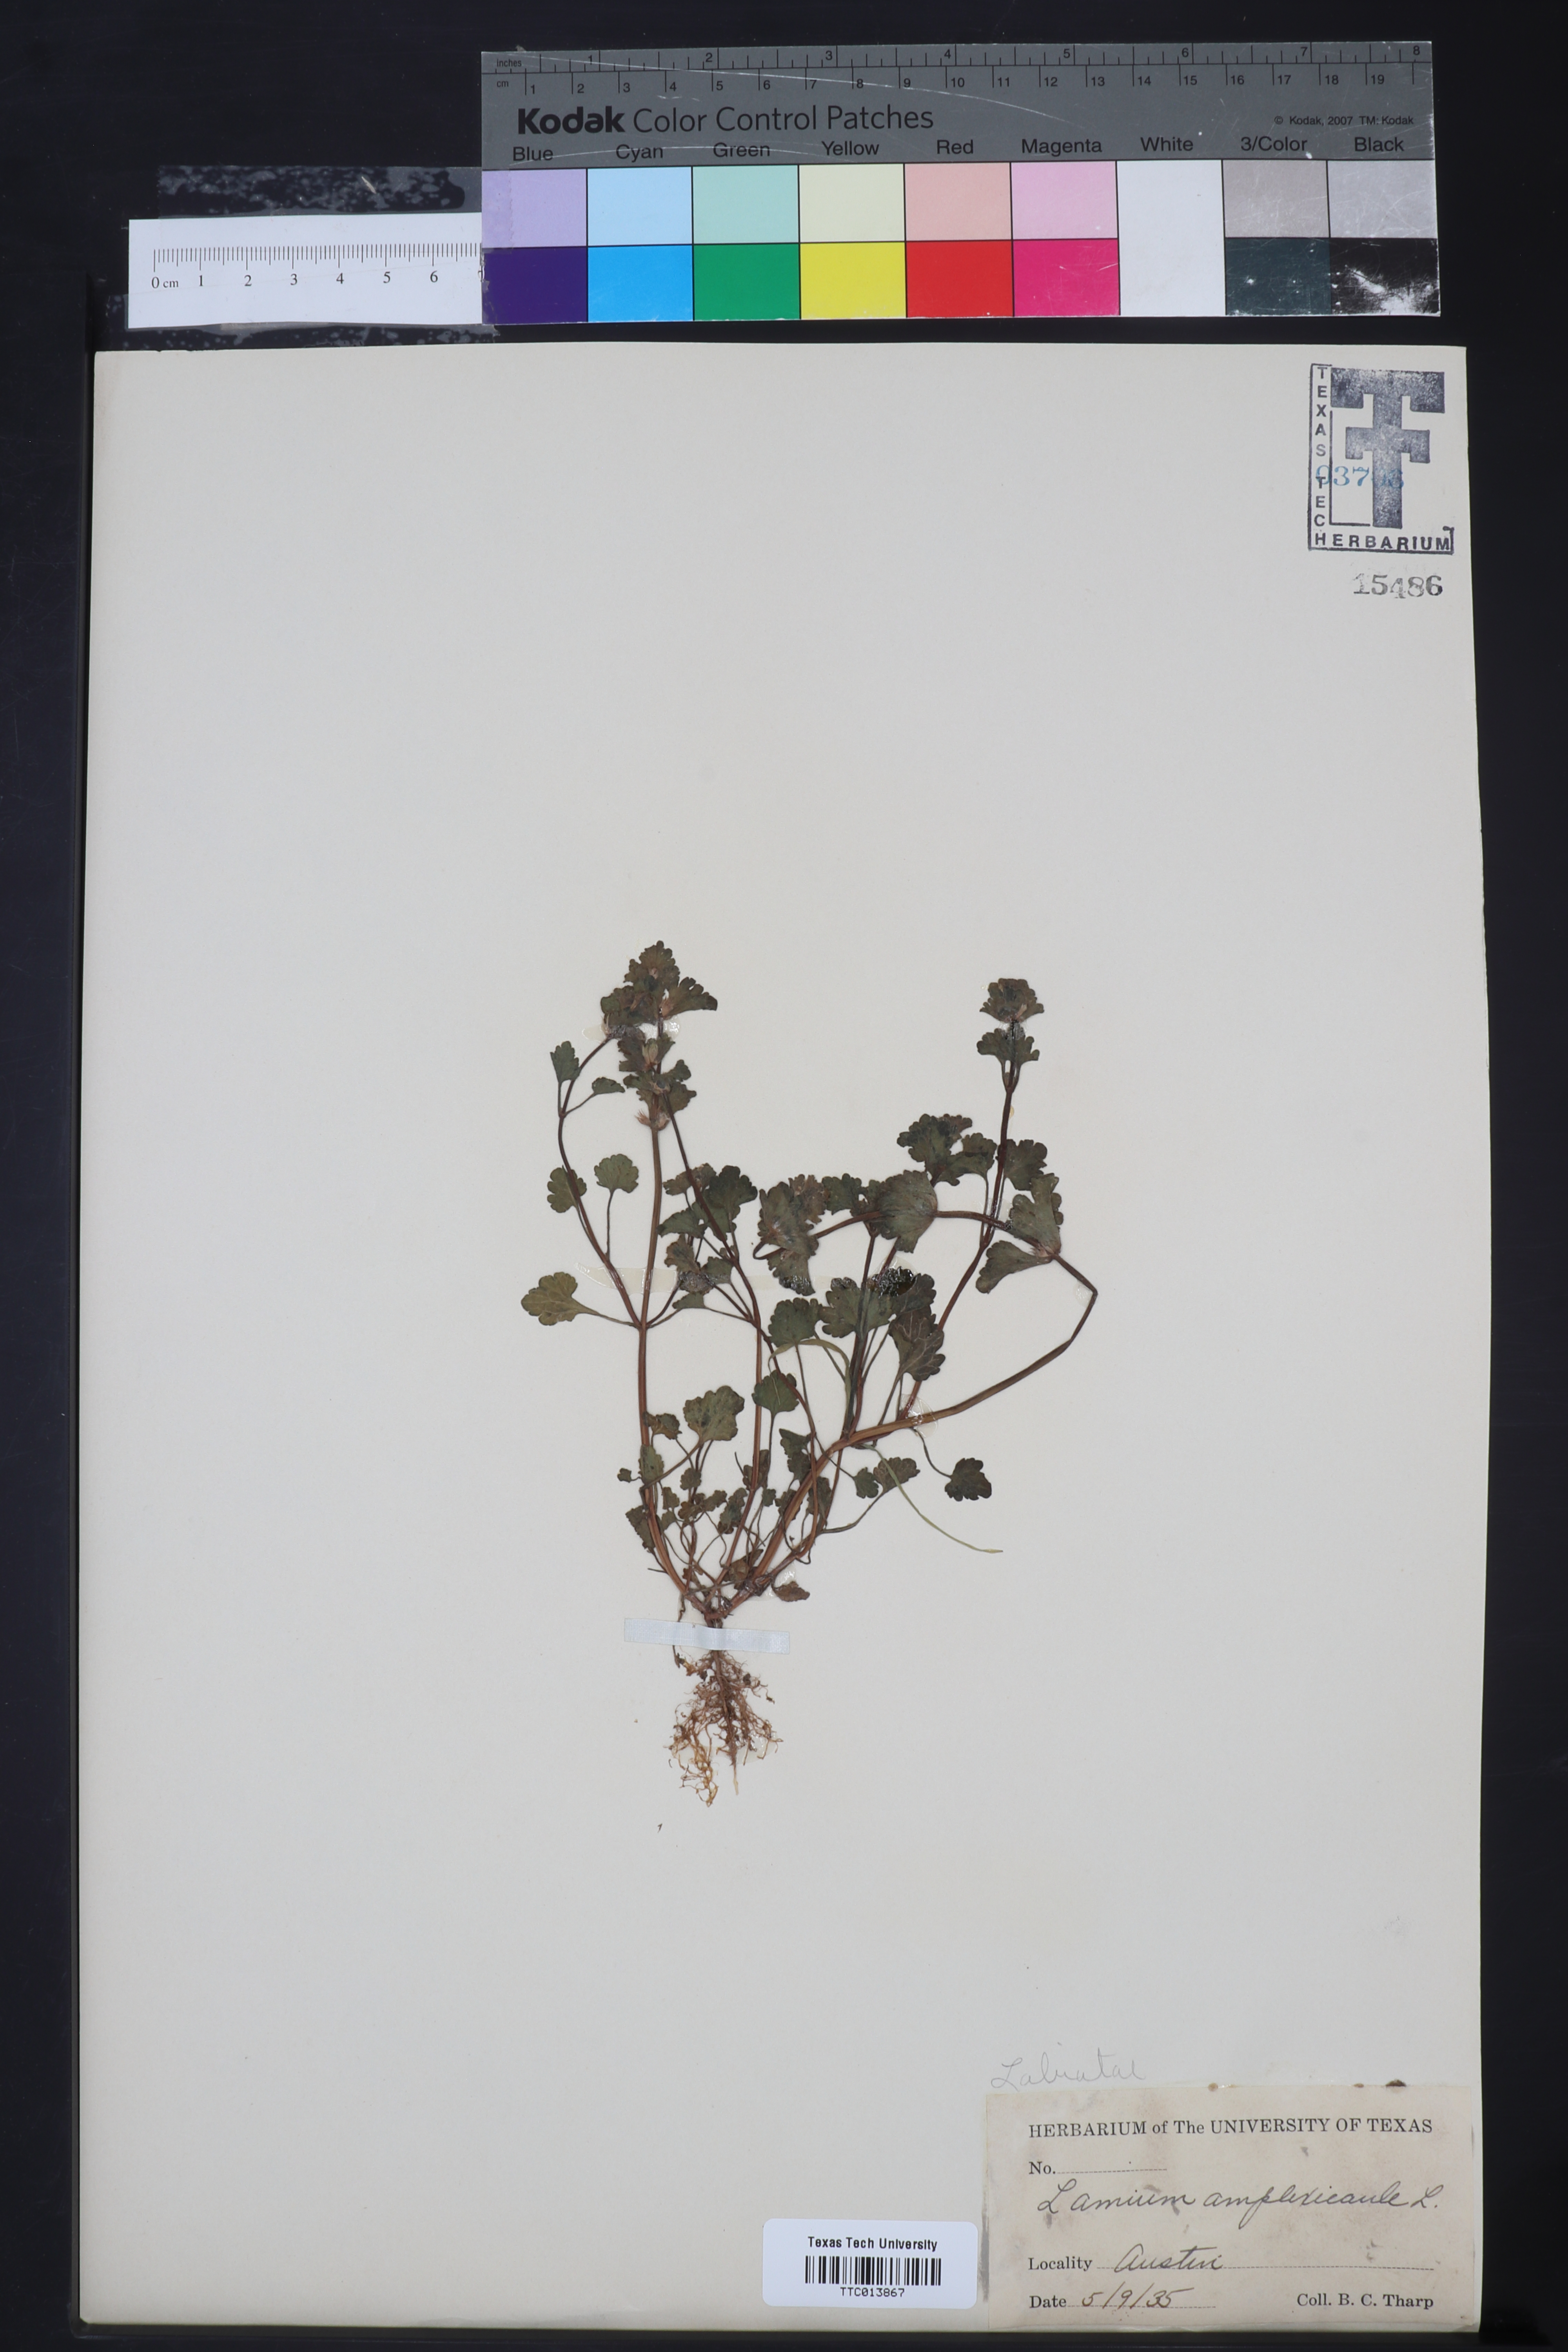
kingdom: Plantae
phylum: Tracheophyta
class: Magnoliopsida
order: Lamiales
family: Lamiaceae
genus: Lamium
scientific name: Lamium amplexicaule
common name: Henbit dead-nettle
